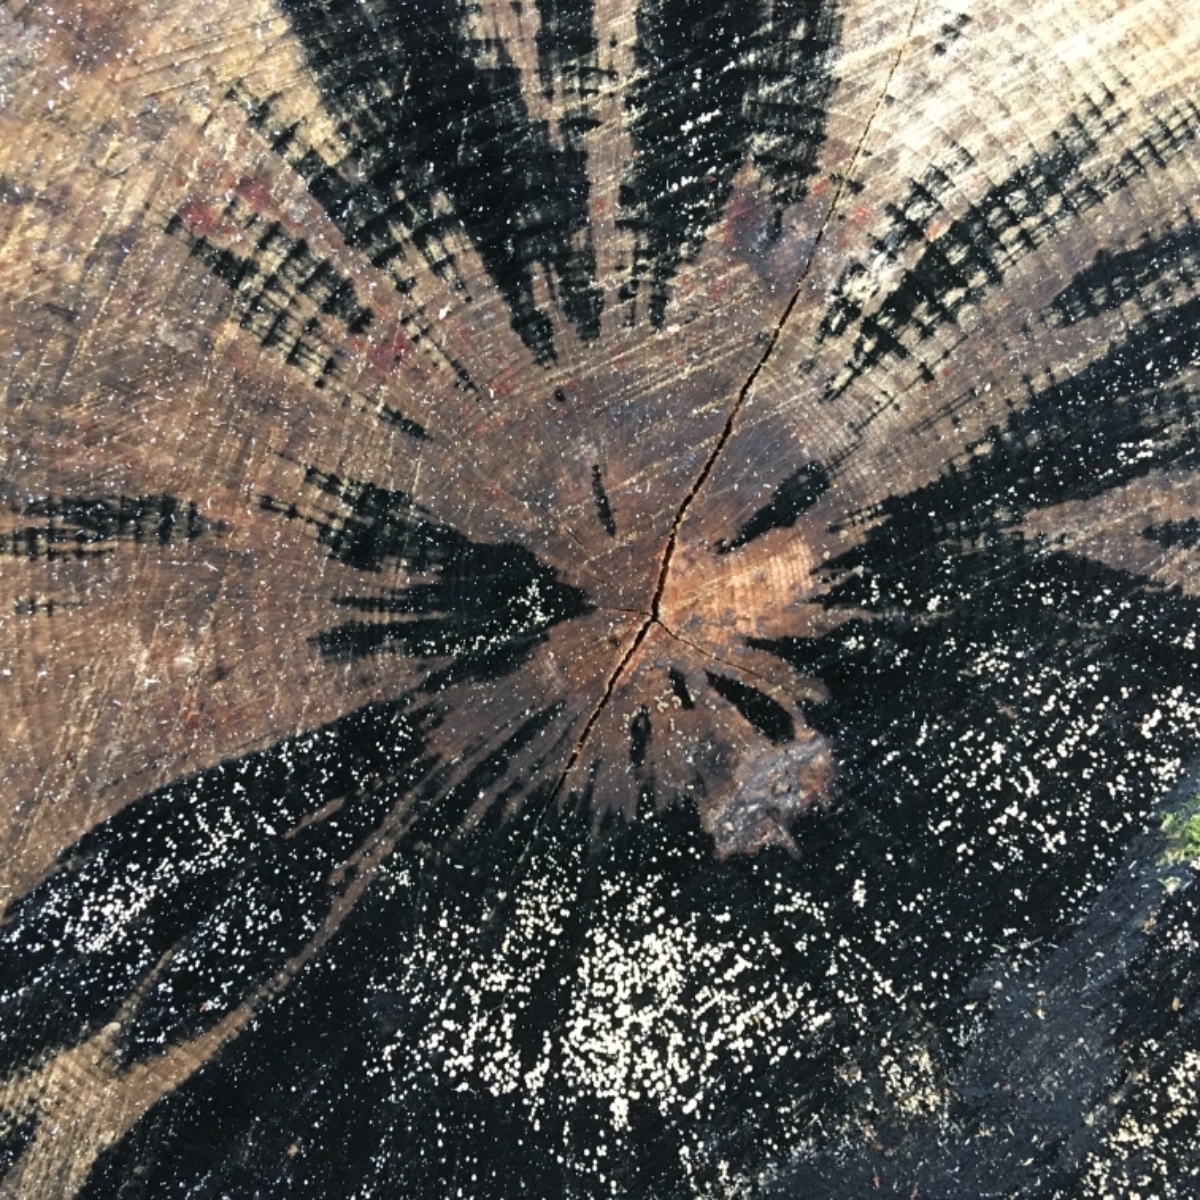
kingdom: Fungi
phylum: Ascomycota
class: Leotiomycetes
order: Helotiales
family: Helotiaceae
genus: Bispora
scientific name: Bispora pallescens
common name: måtte-snitskive
